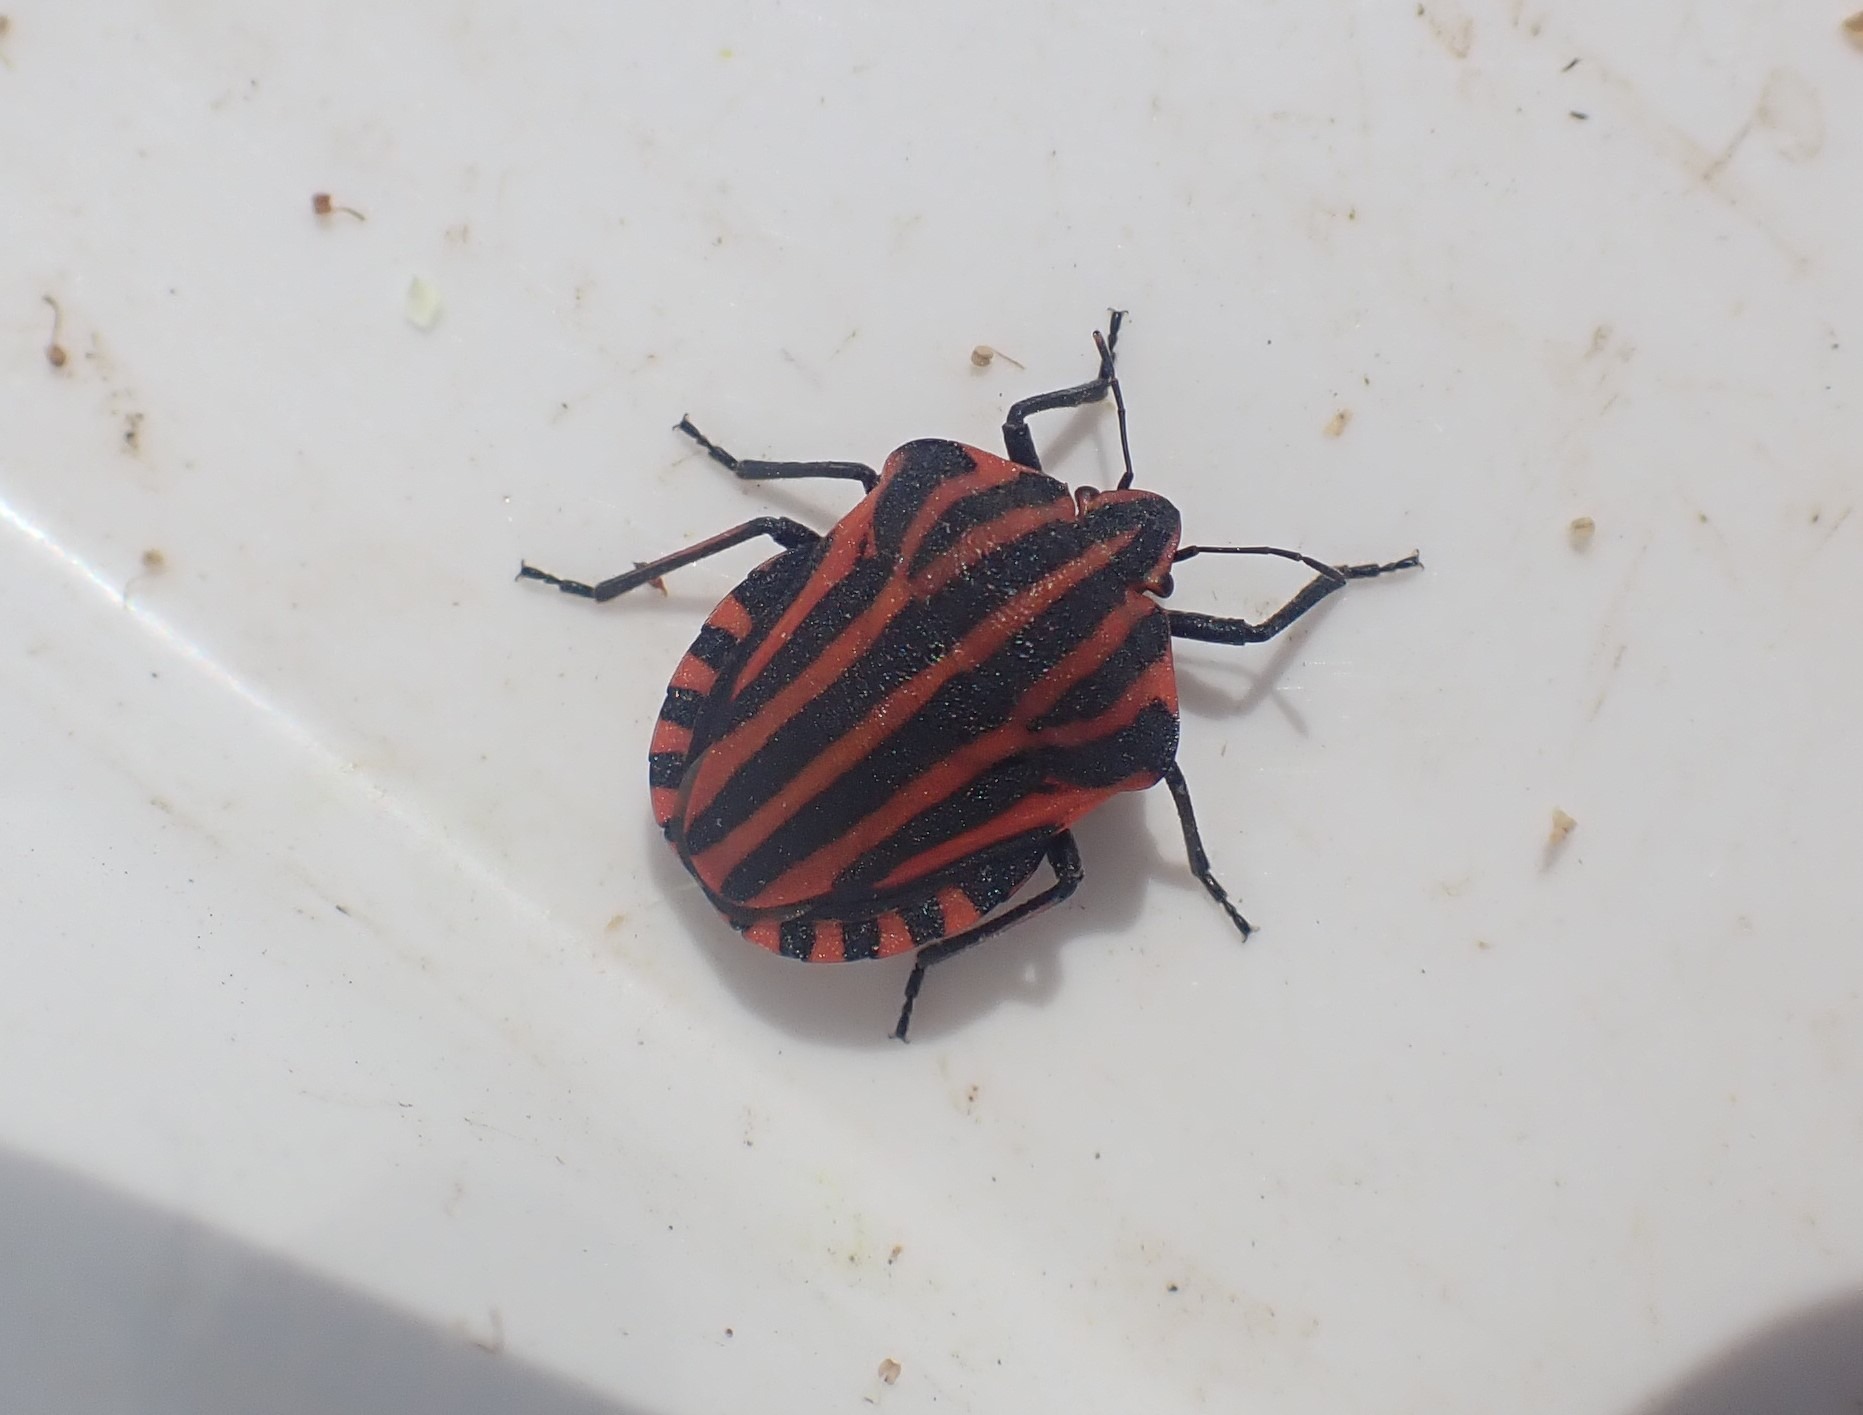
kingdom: Animalia
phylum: Arthropoda
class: Insecta
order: Hemiptera
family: Pentatomidae
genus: Graphosoma
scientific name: Graphosoma italicum
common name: Stribetæge
